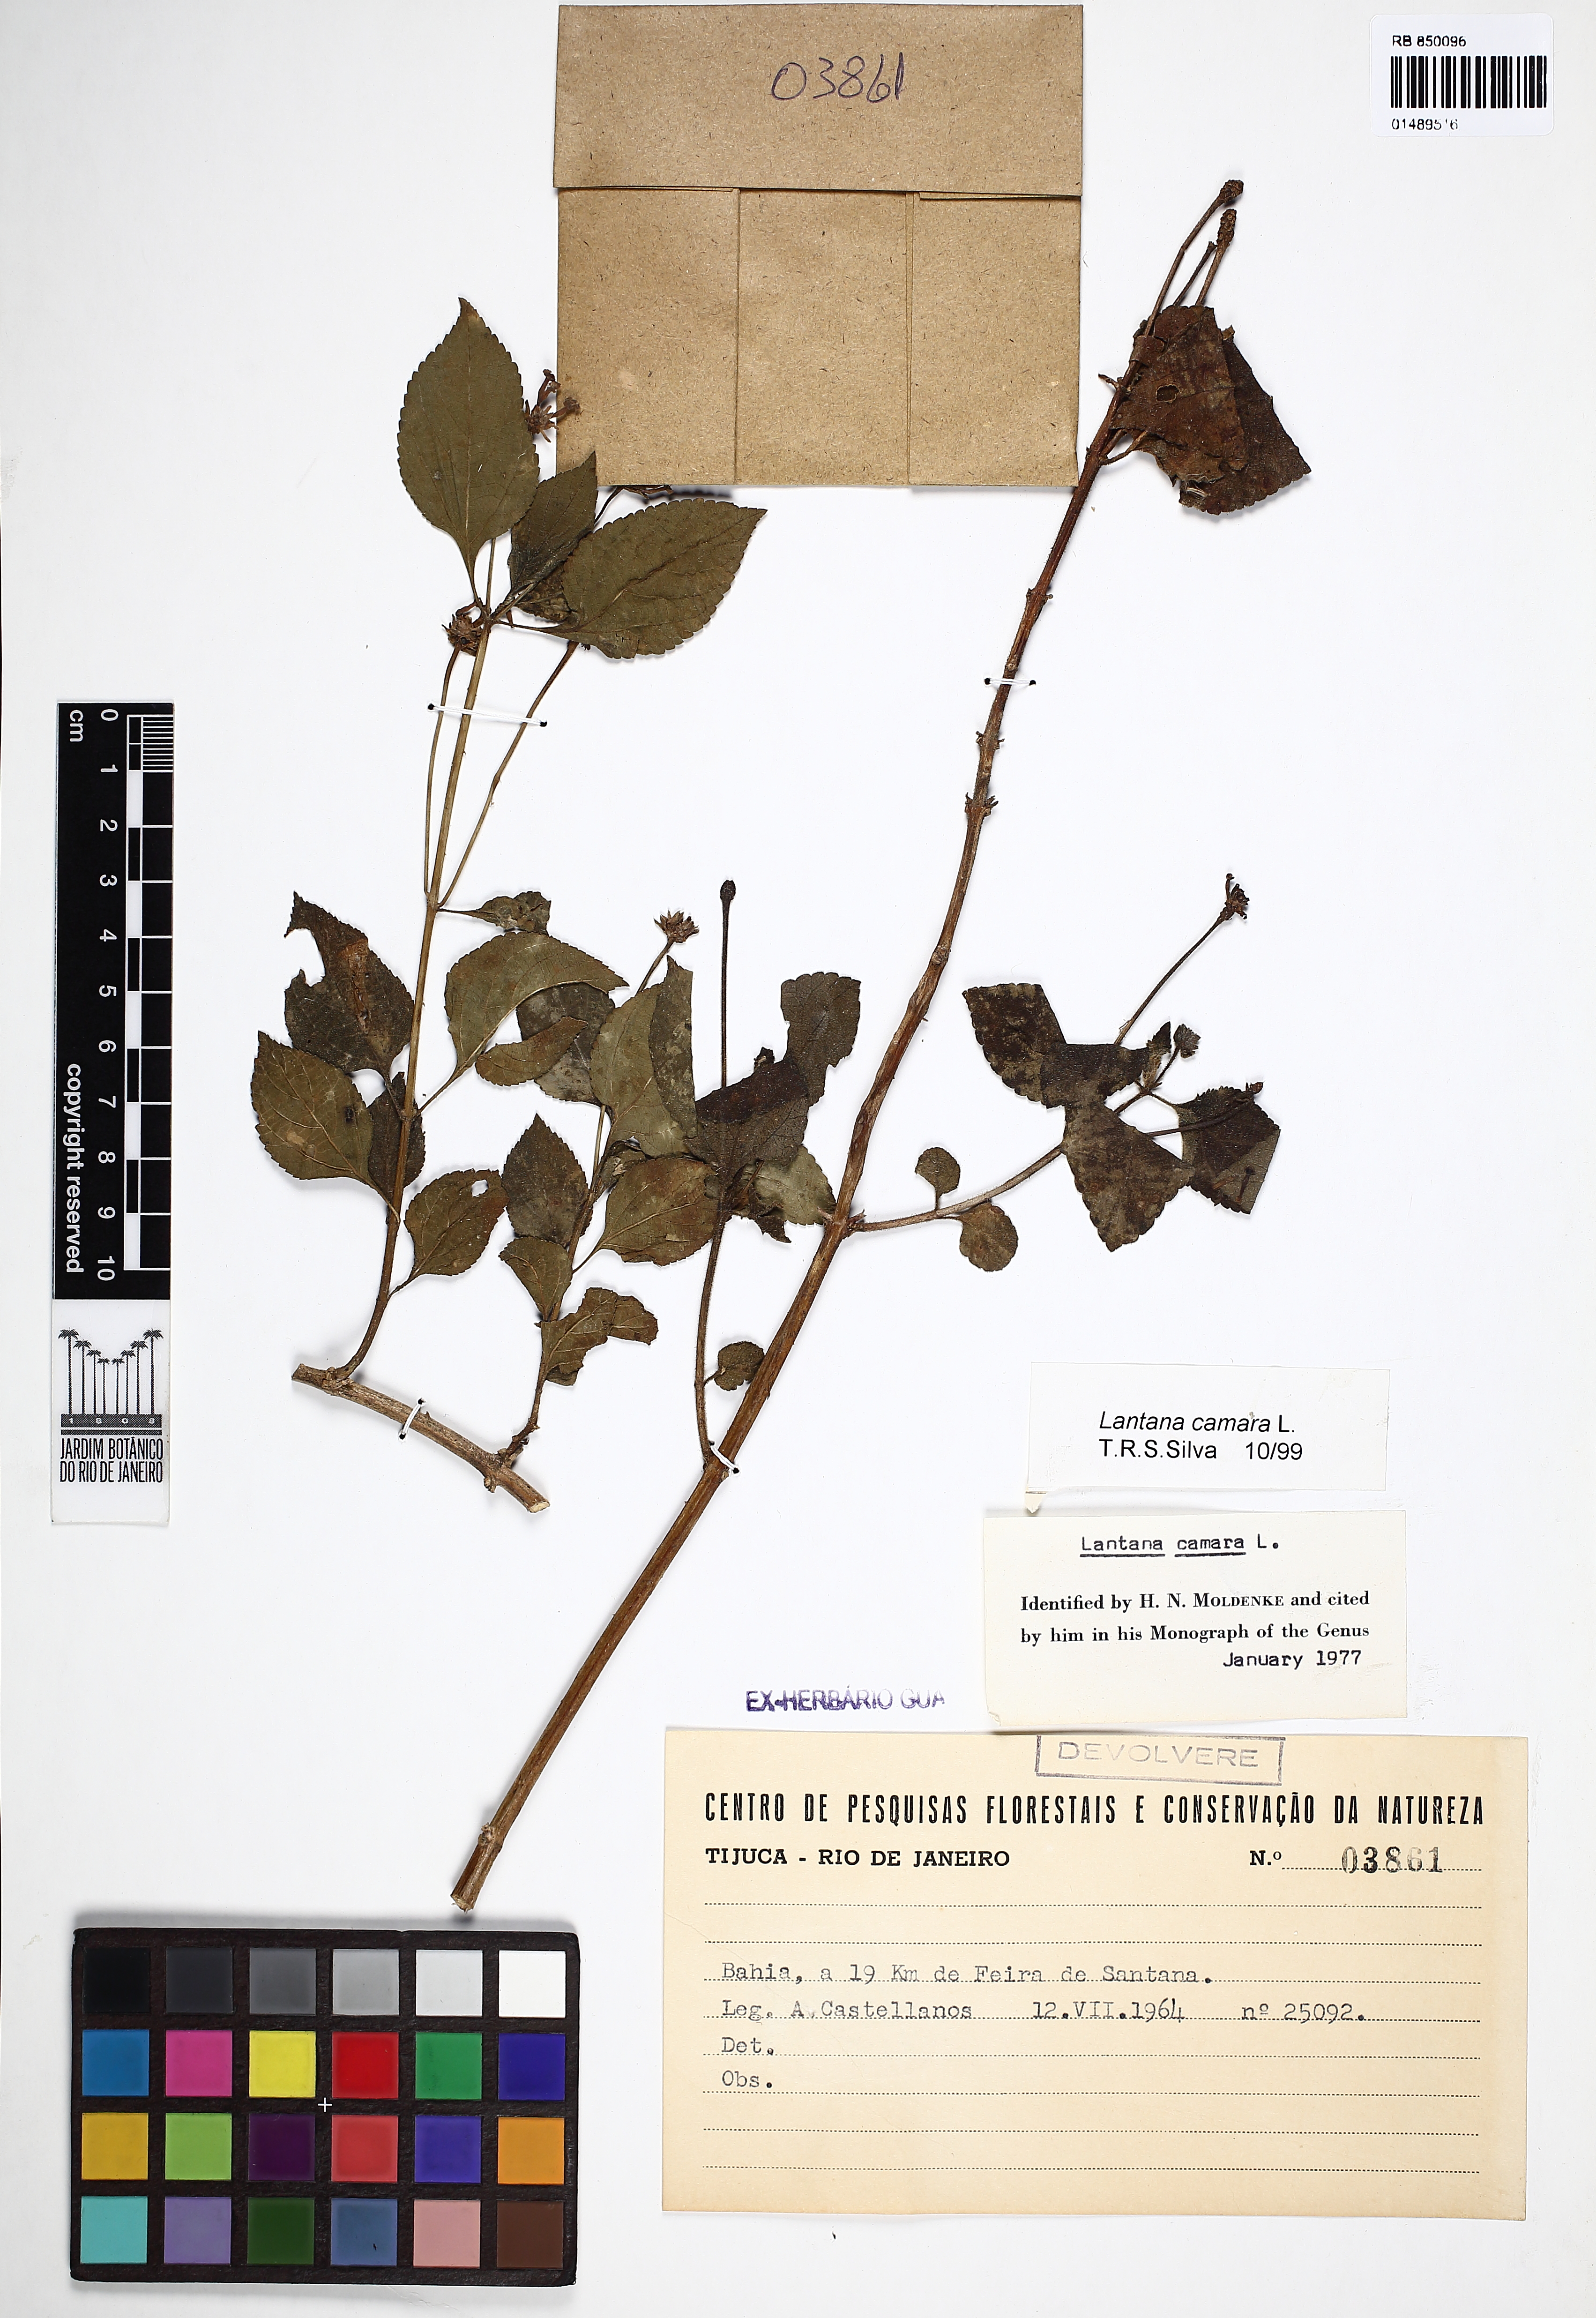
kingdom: Plantae
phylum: Tracheophyta
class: Magnoliopsida
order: Lamiales
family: Verbenaceae
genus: Lantana
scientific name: Lantana camara
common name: Lantana
